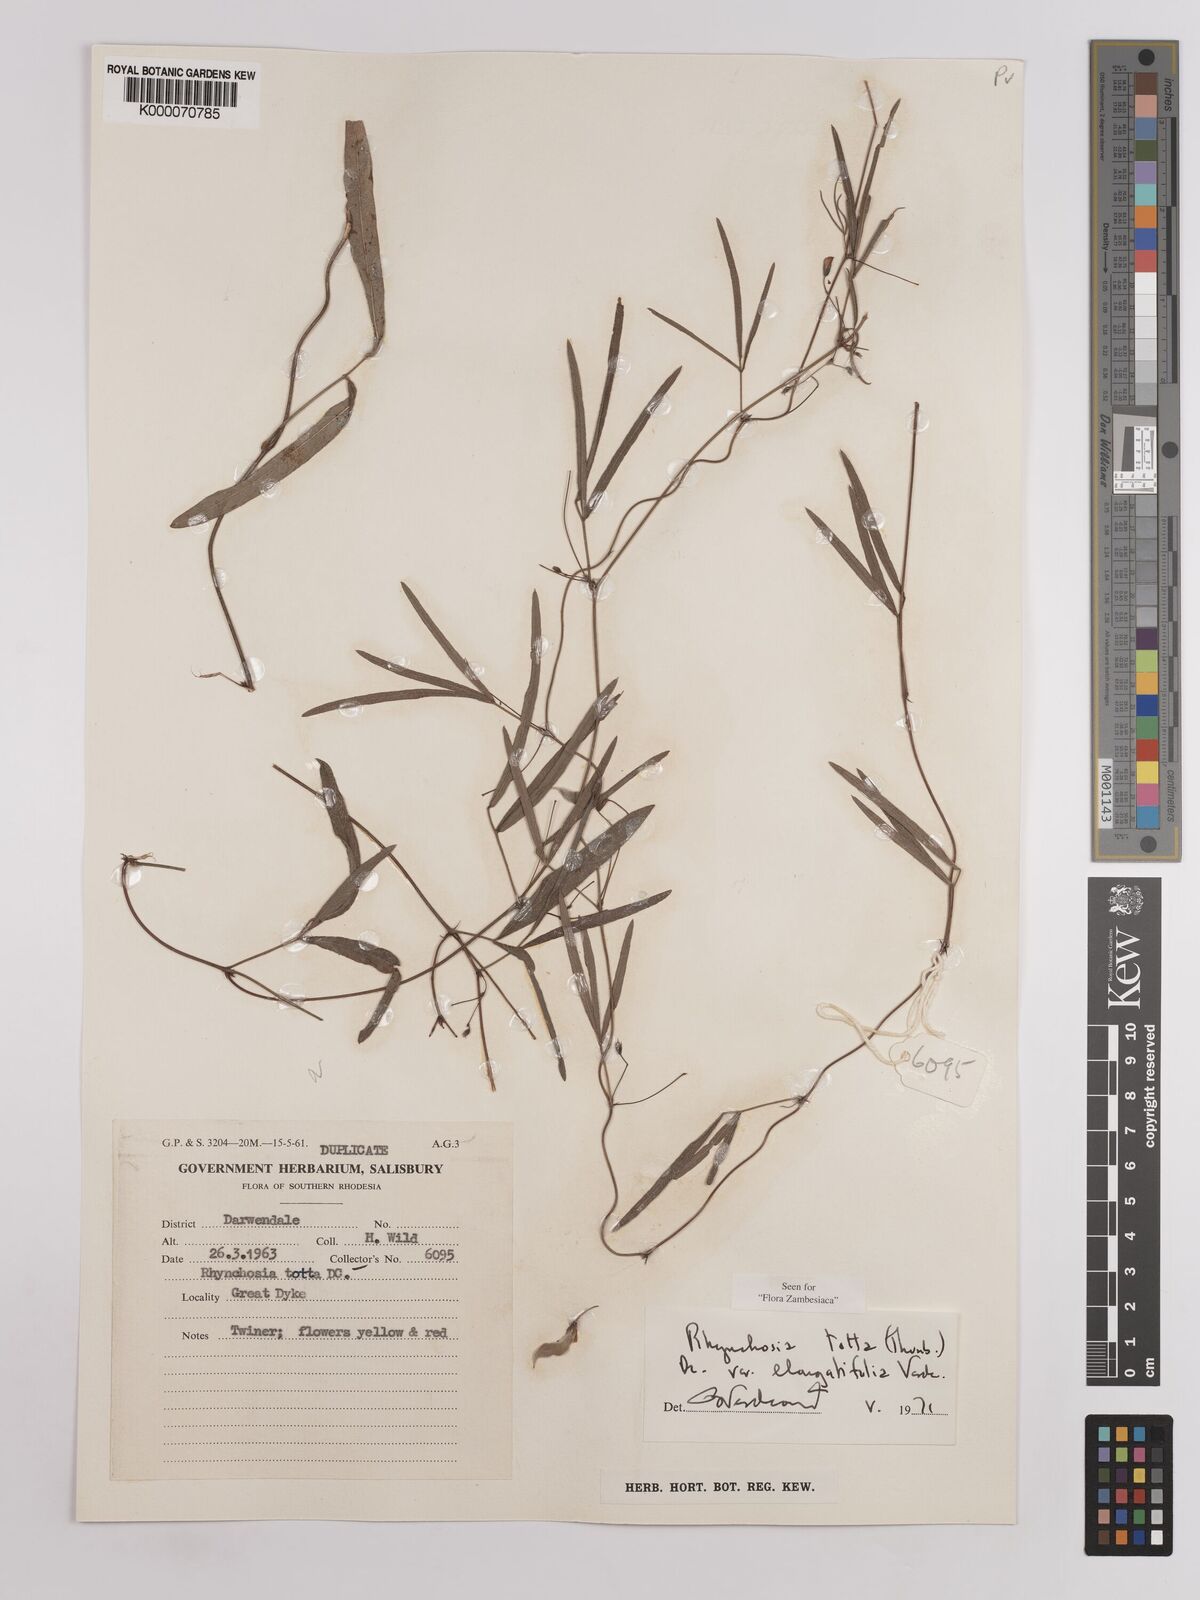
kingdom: Plantae
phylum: Tracheophyta
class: Magnoliopsida
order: Fabales
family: Fabaceae
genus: Rhynchosia
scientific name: Rhynchosia totta
